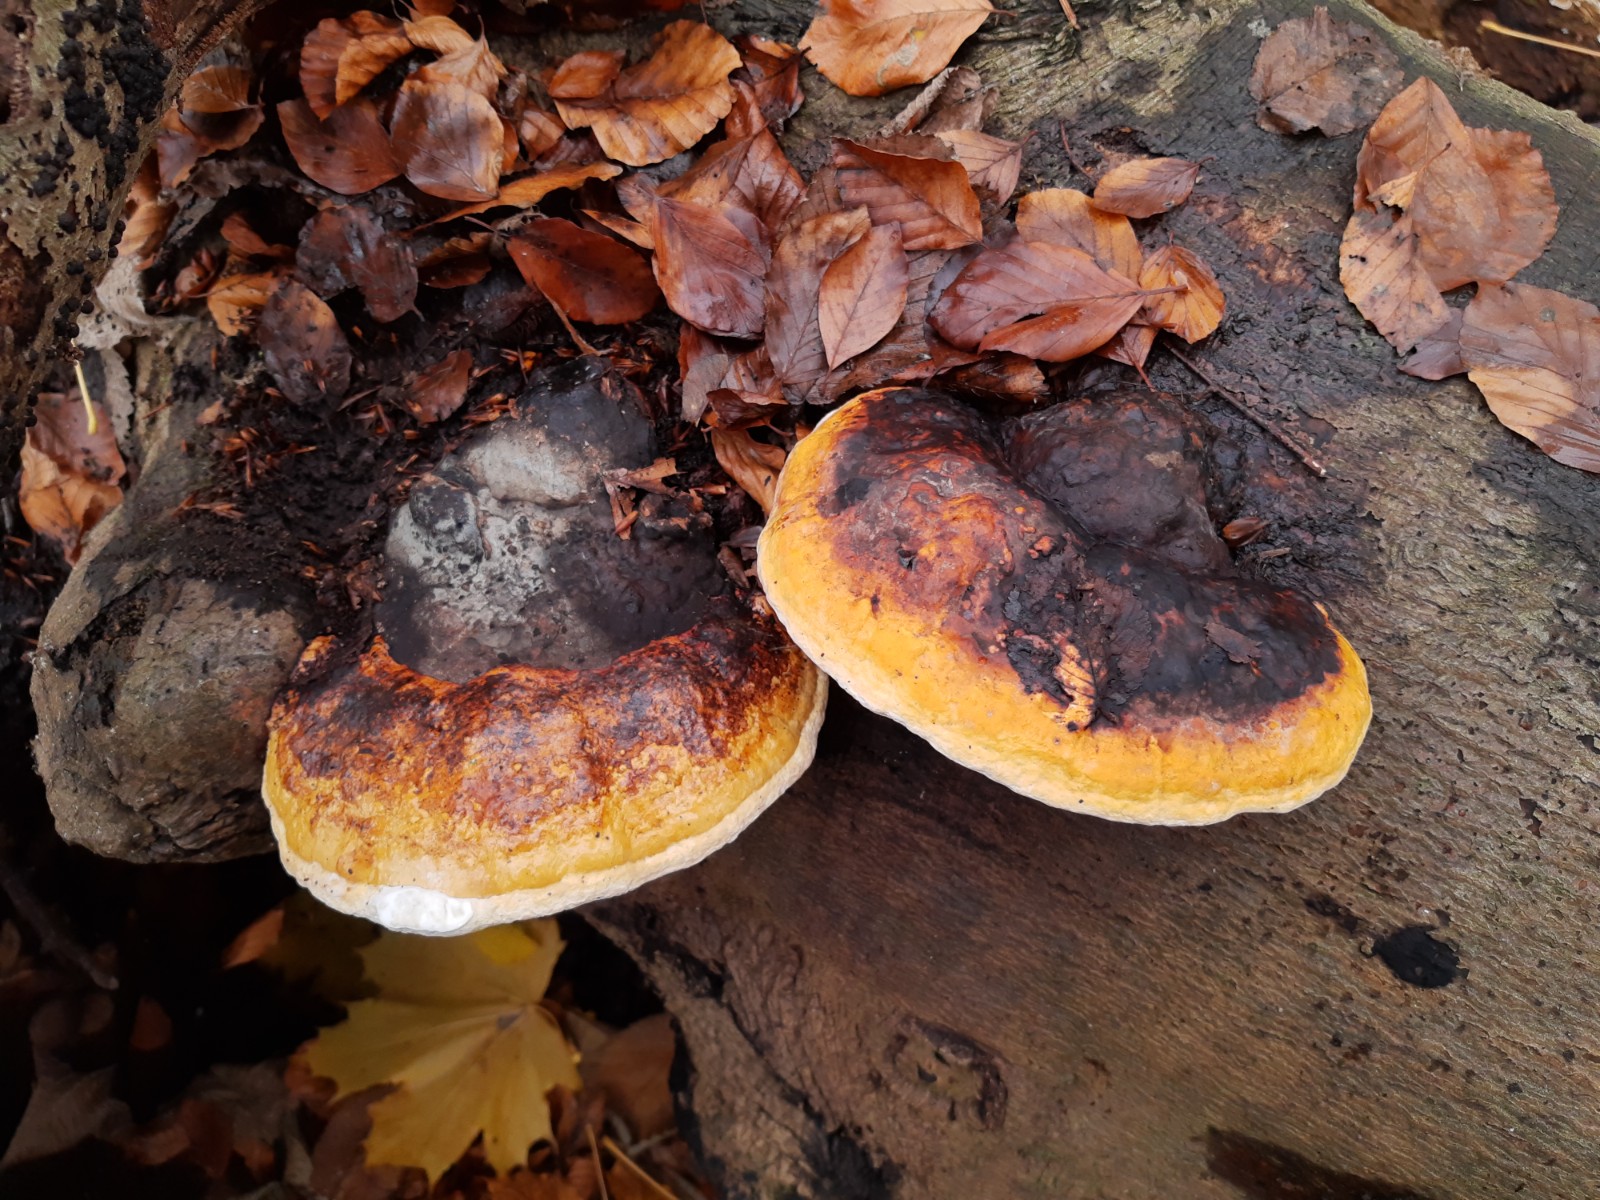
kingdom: Fungi
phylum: Basidiomycota
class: Agaricomycetes
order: Polyporales
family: Fomitopsidaceae
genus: Fomitopsis
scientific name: Fomitopsis pinicola
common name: randbæltet hovporesvamp
